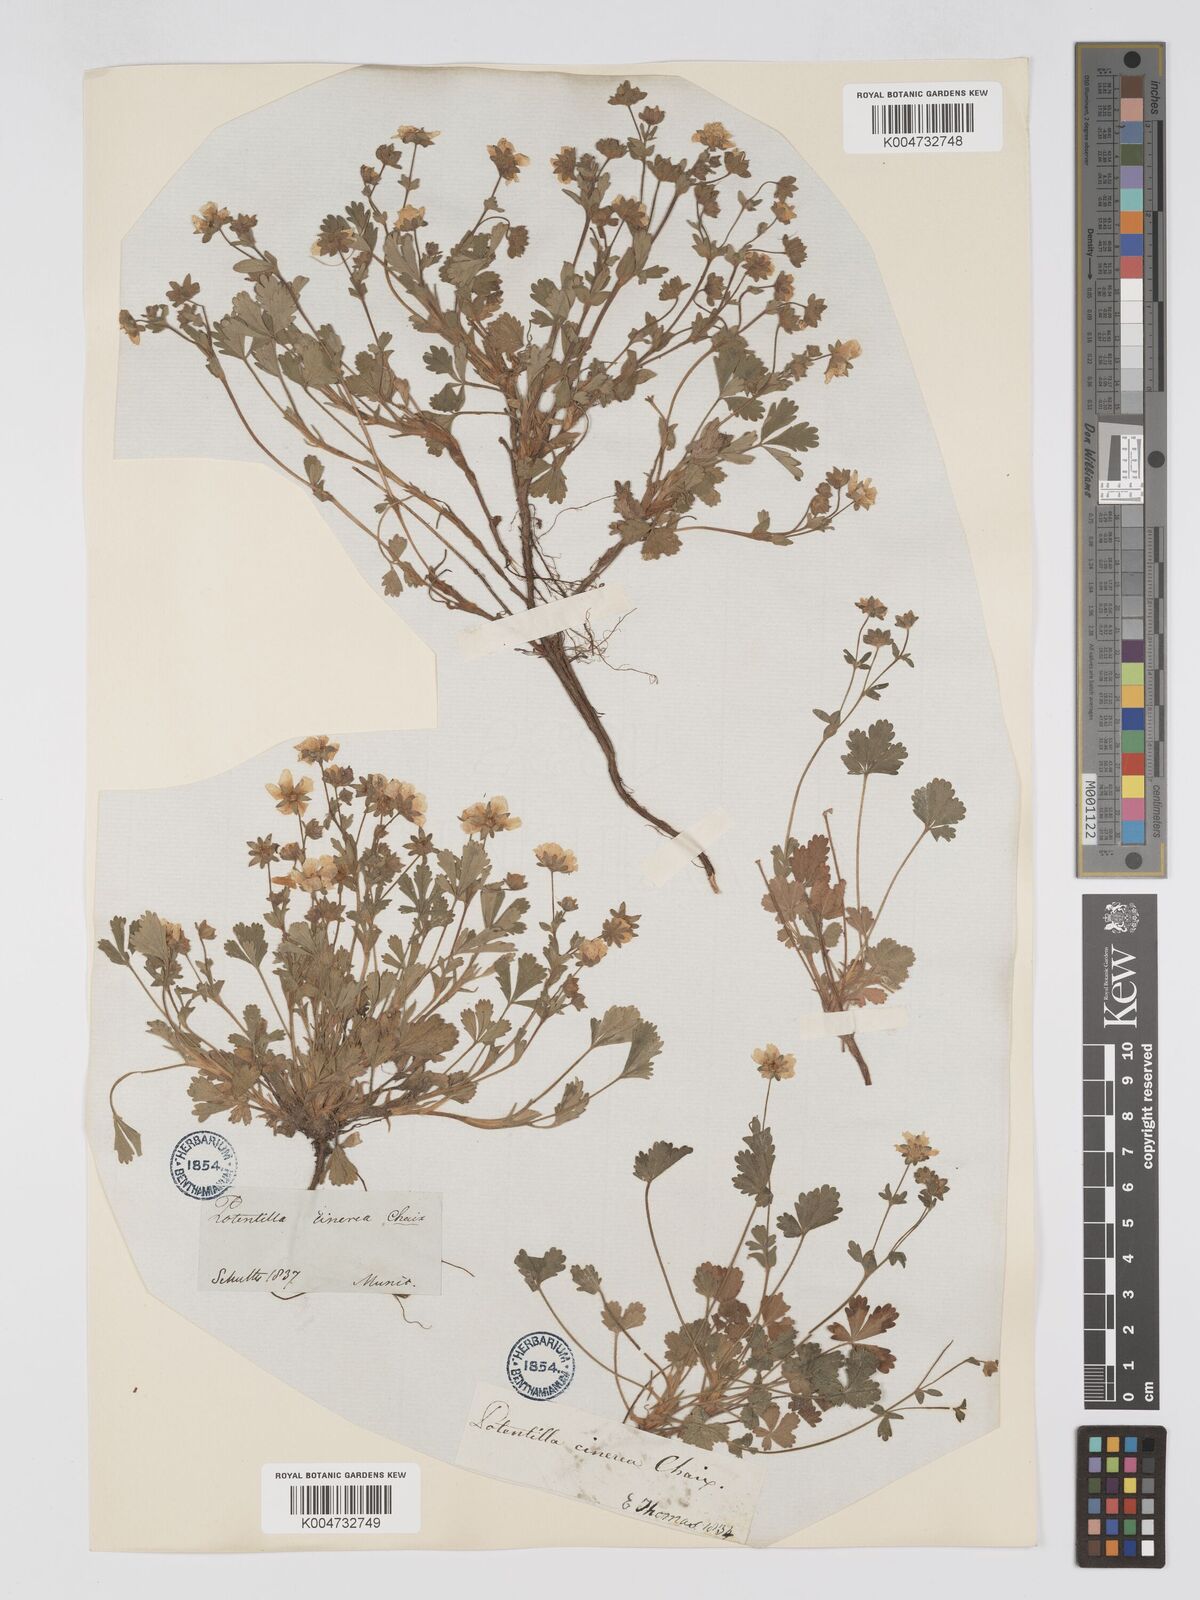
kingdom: Plantae
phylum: Tracheophyta
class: Magnoliopsida
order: Rosales
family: Rosaceae
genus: Potentilla
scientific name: Potentilla
